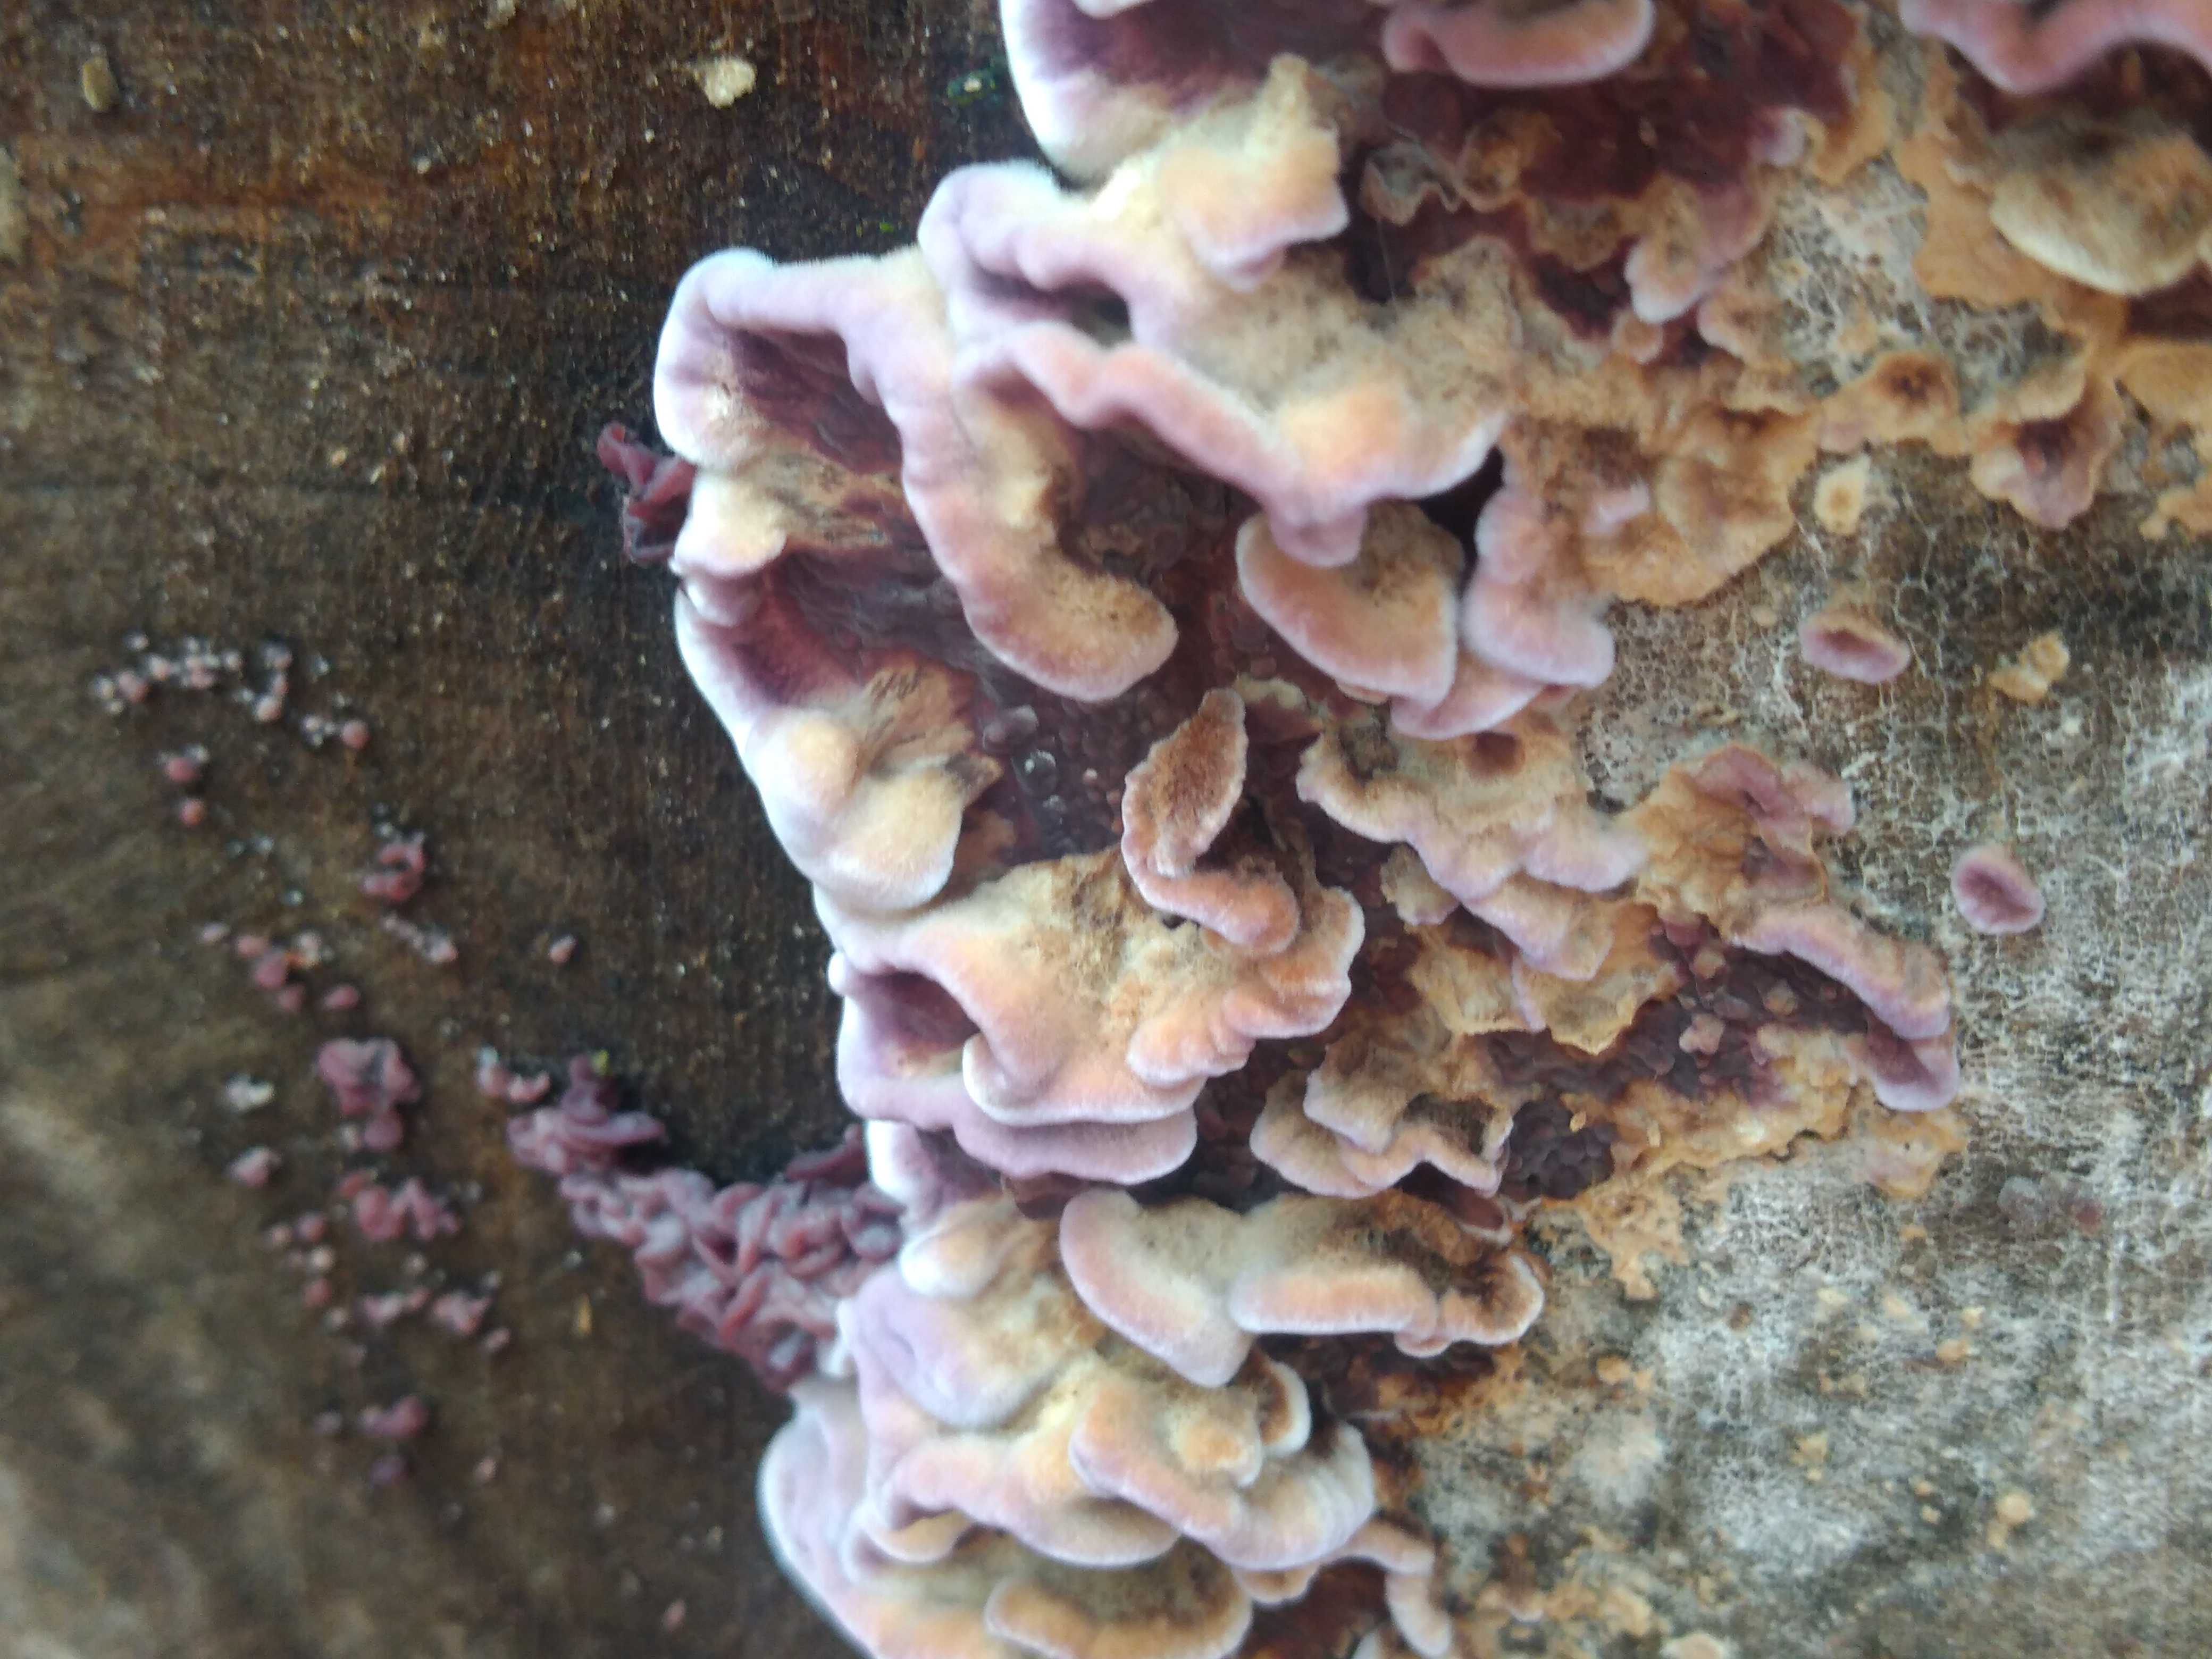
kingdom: Fungi
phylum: Basidiomycota
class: Agaricomycetes
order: Agaricales
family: Cyphellaceae
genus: Chondrostereum
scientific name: Chondrostereum purpureum
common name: purpurlædersvamp
